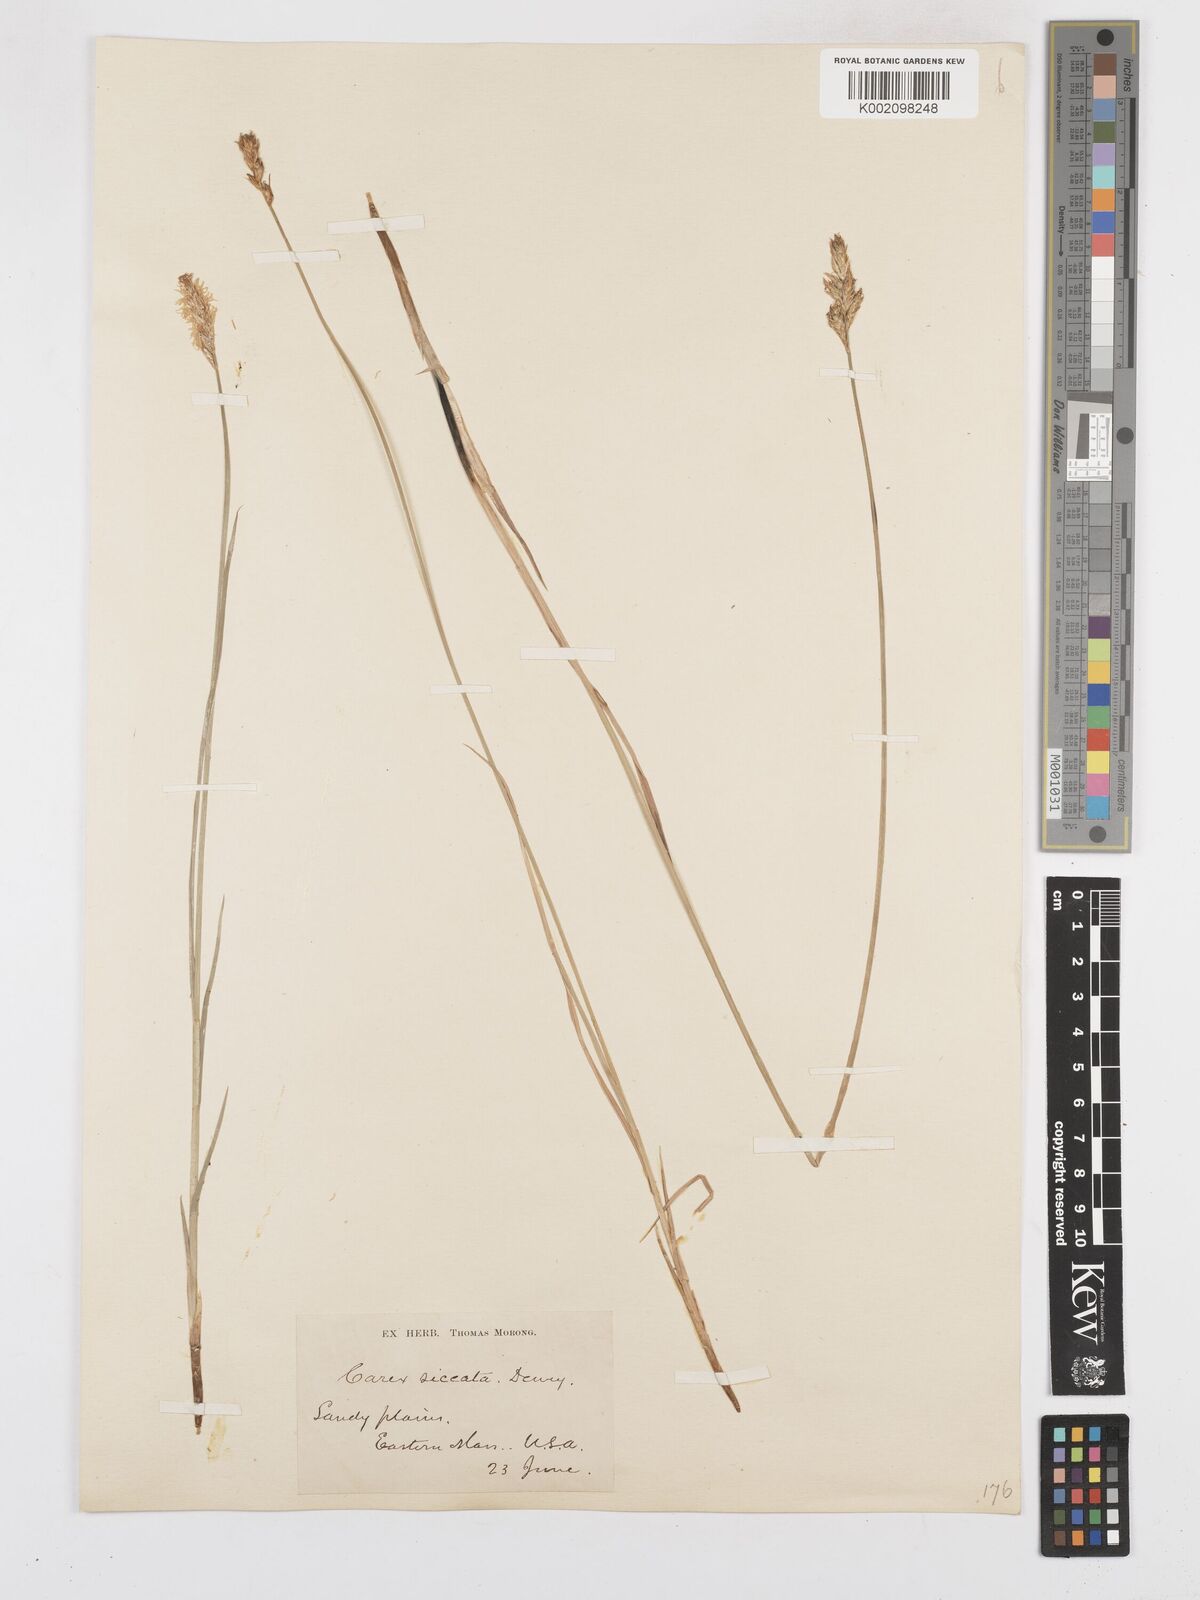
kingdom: Plantae
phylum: Tracheophyta
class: Liliopsida
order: Poales
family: Cyperaceae
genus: Carex
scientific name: Carex foenea
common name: Bronze sedge
